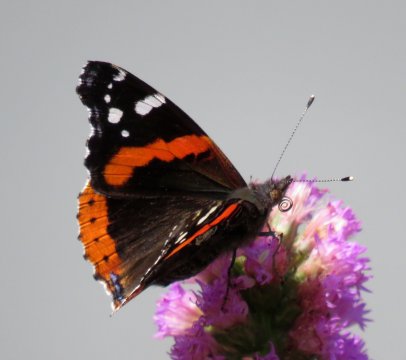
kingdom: Animalia
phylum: Arthropoda
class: Insecta
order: Lepidoptera
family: Nymphalidae
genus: Vanessa
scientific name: Vanessa atalanta
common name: Red Admiral
